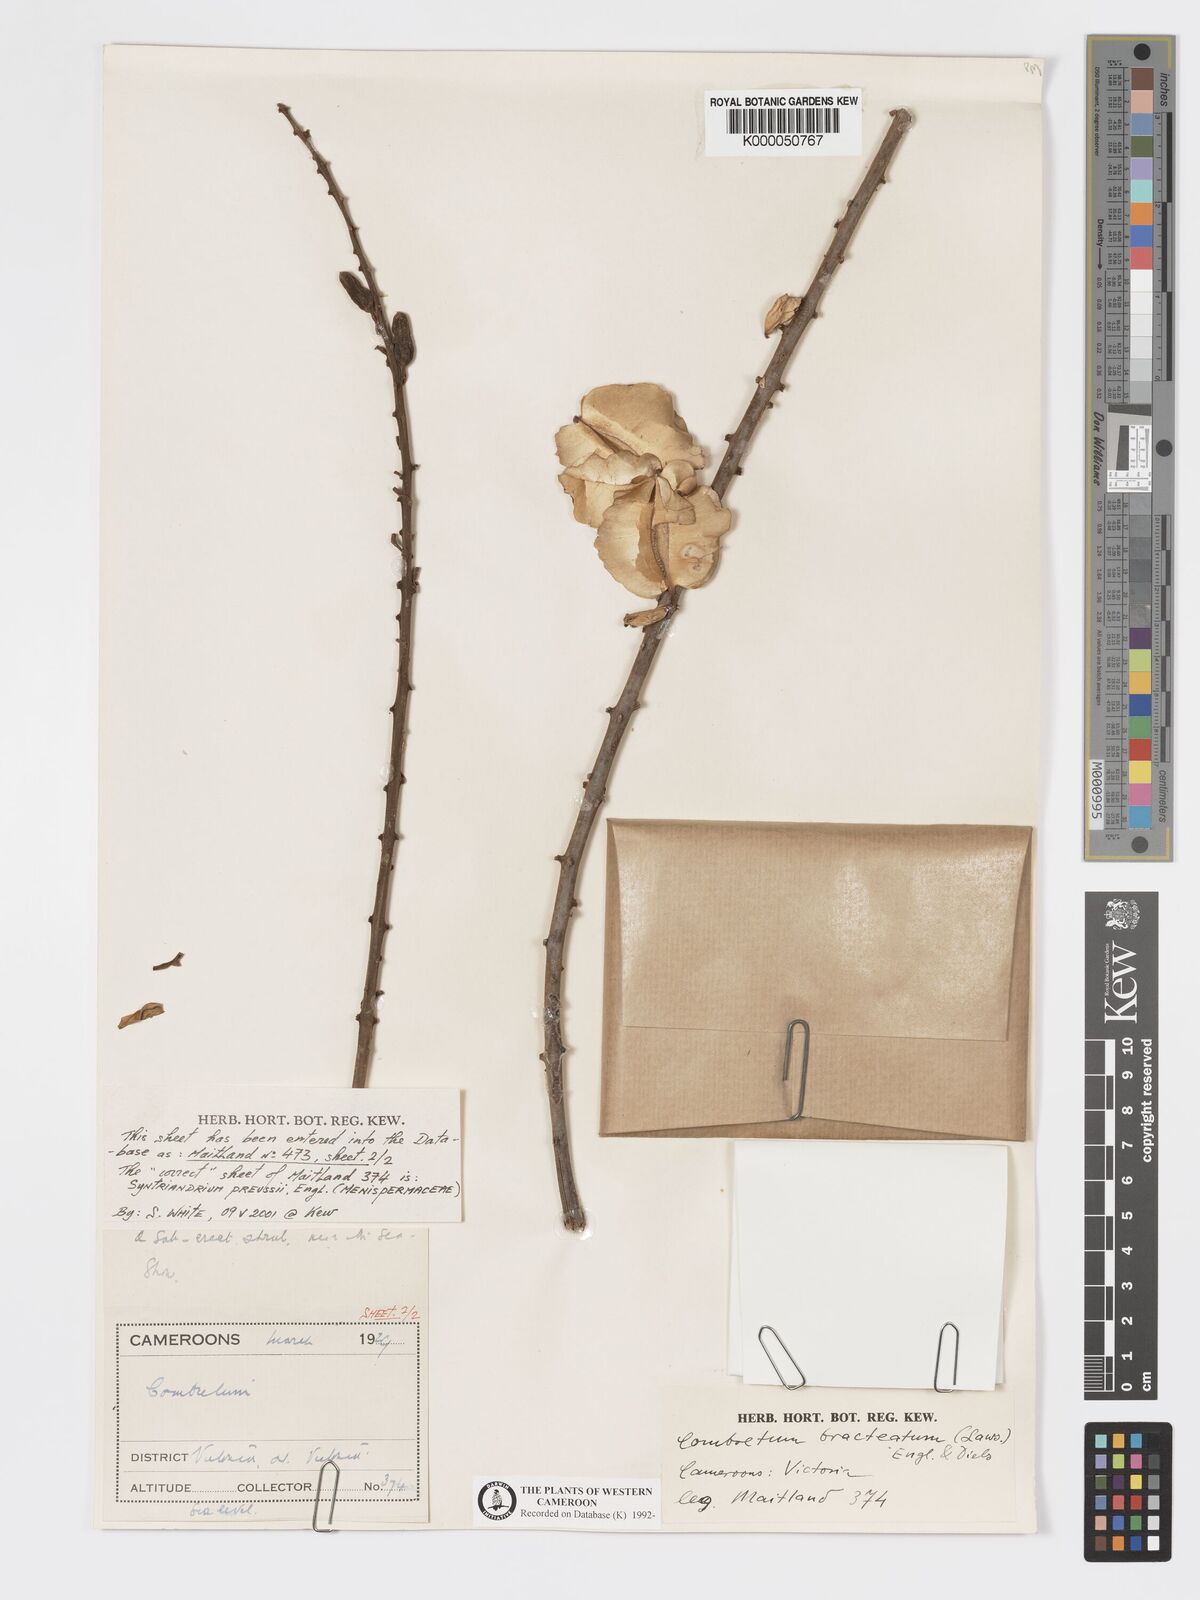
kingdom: Plantae
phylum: Tracheophyta
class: Magnoliopsida
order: Myrtales
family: Combretaceae
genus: Combretum
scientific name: Combretum bracteatum
